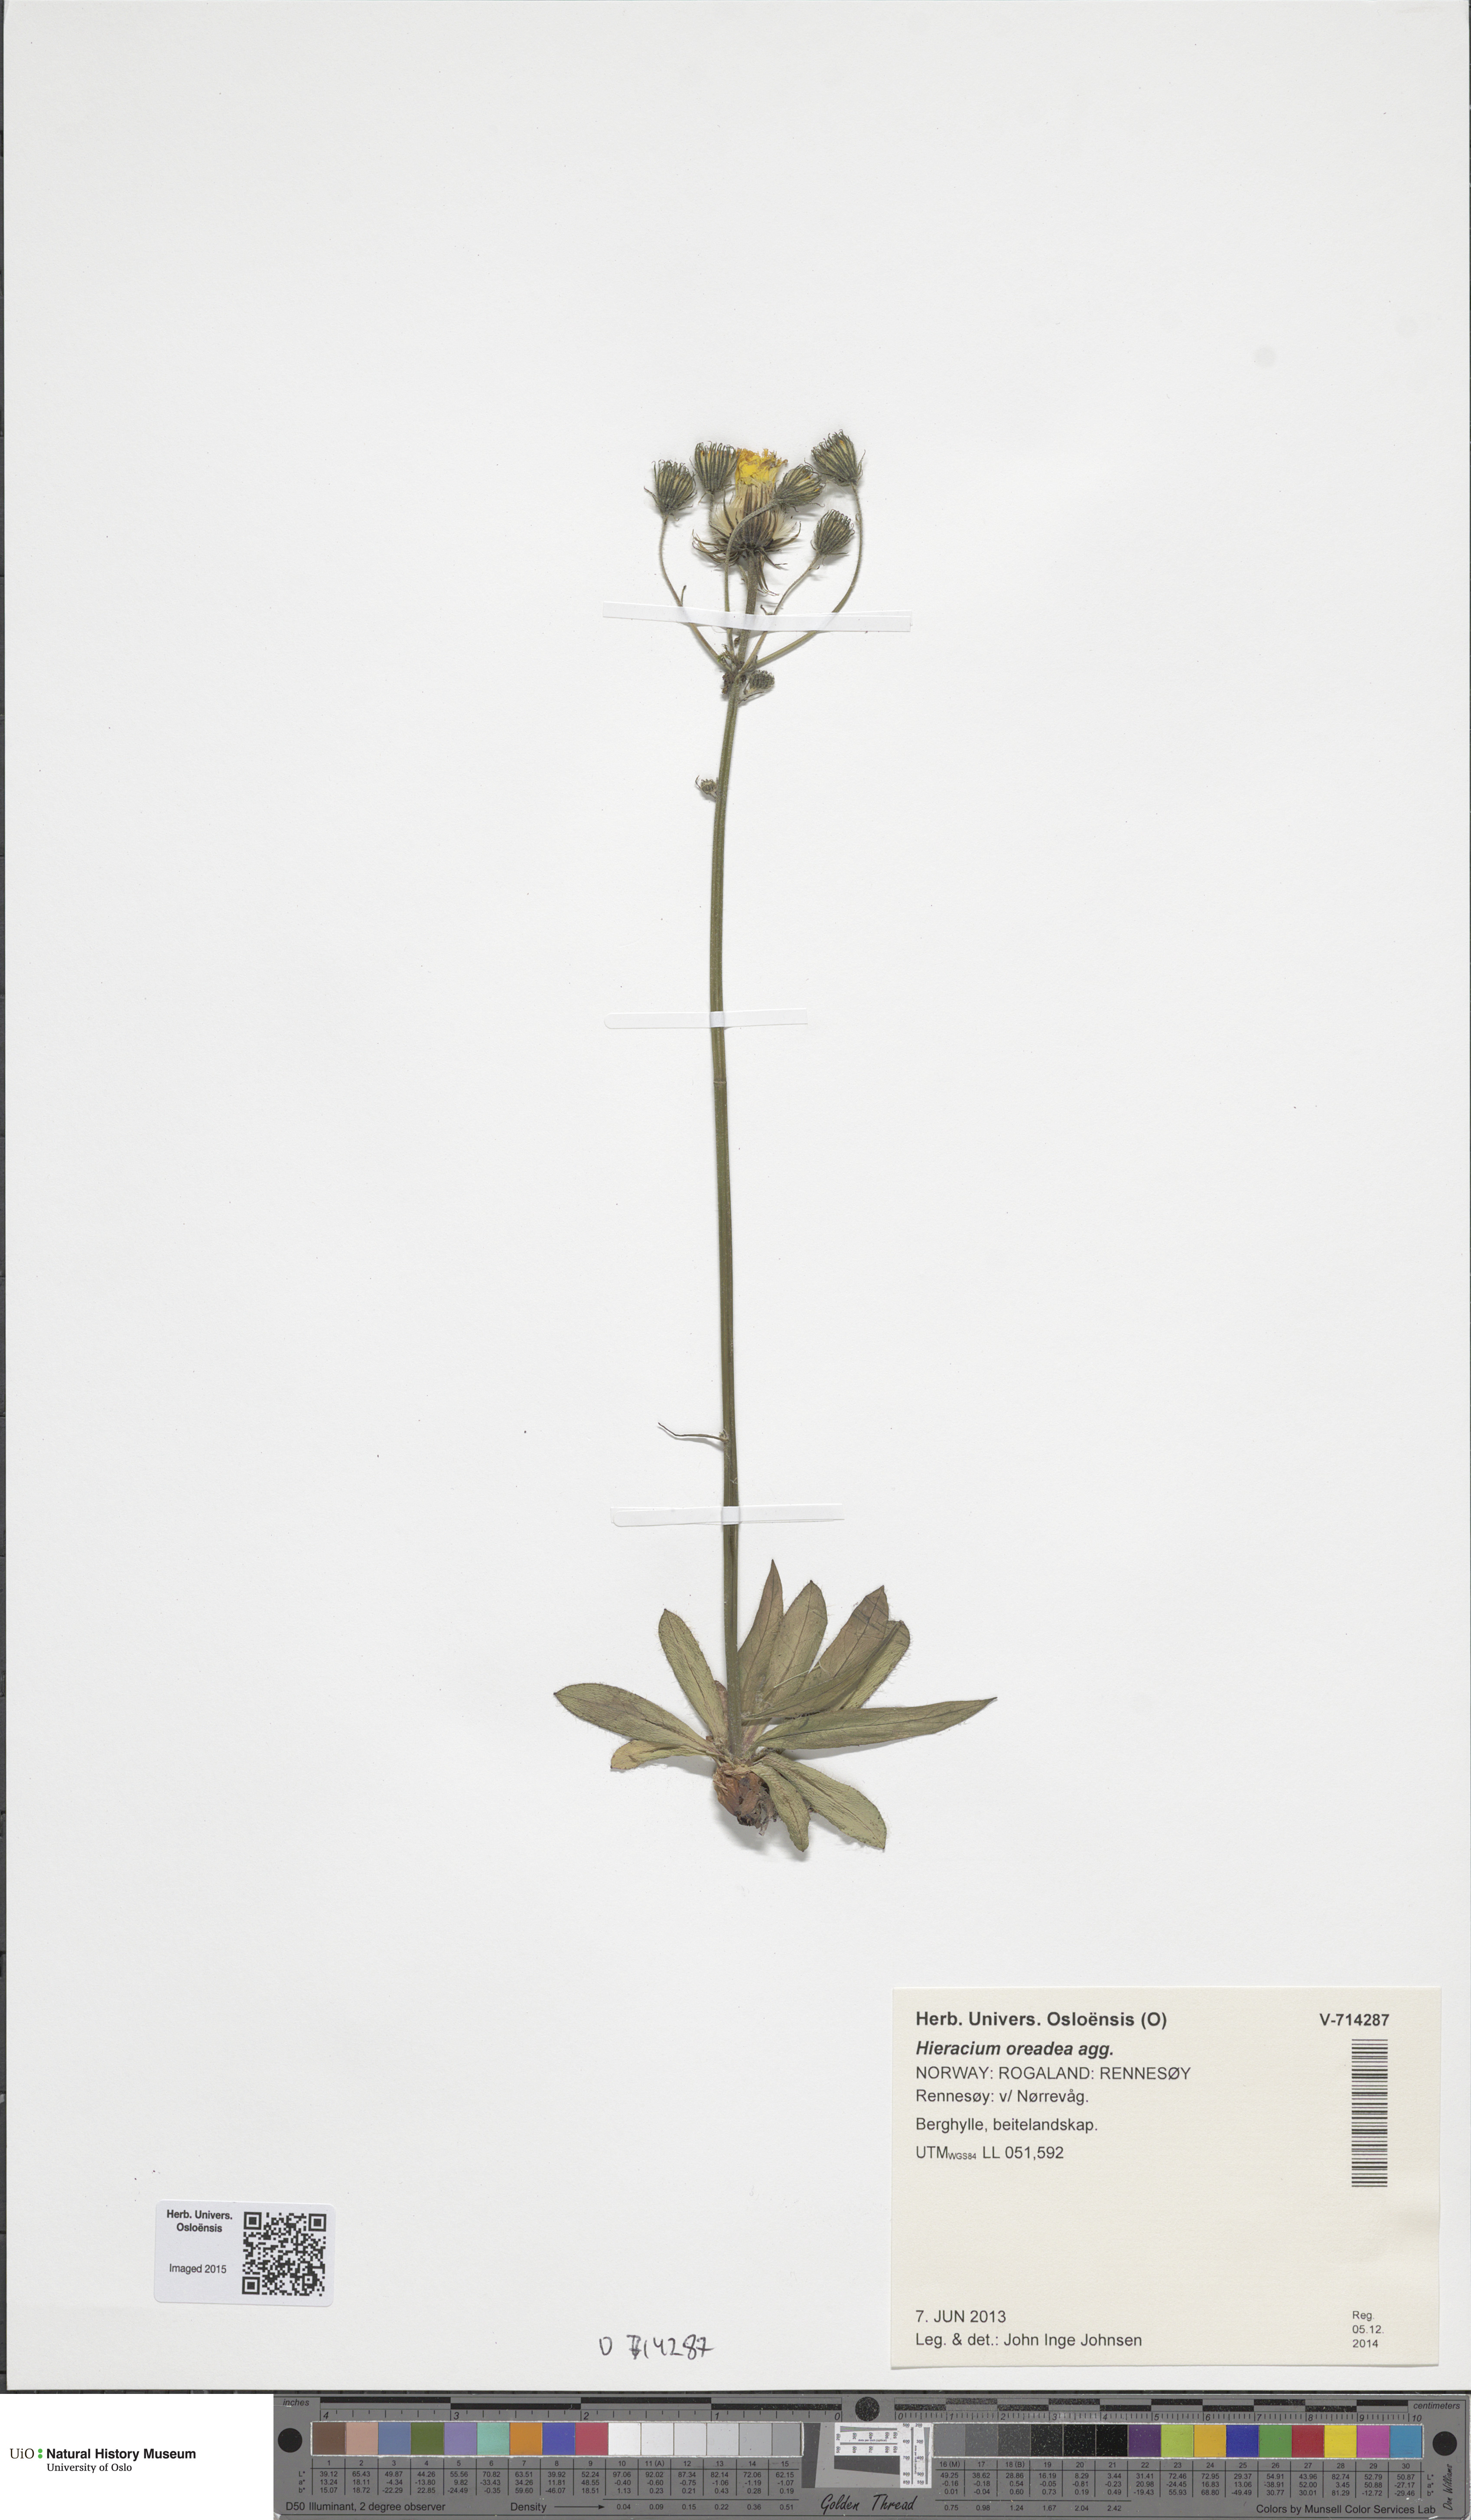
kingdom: Plantae
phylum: Tracheophyta
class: Magnoliopsida
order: Asterales
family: Asteraceae
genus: Hieracium
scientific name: Hieracium
